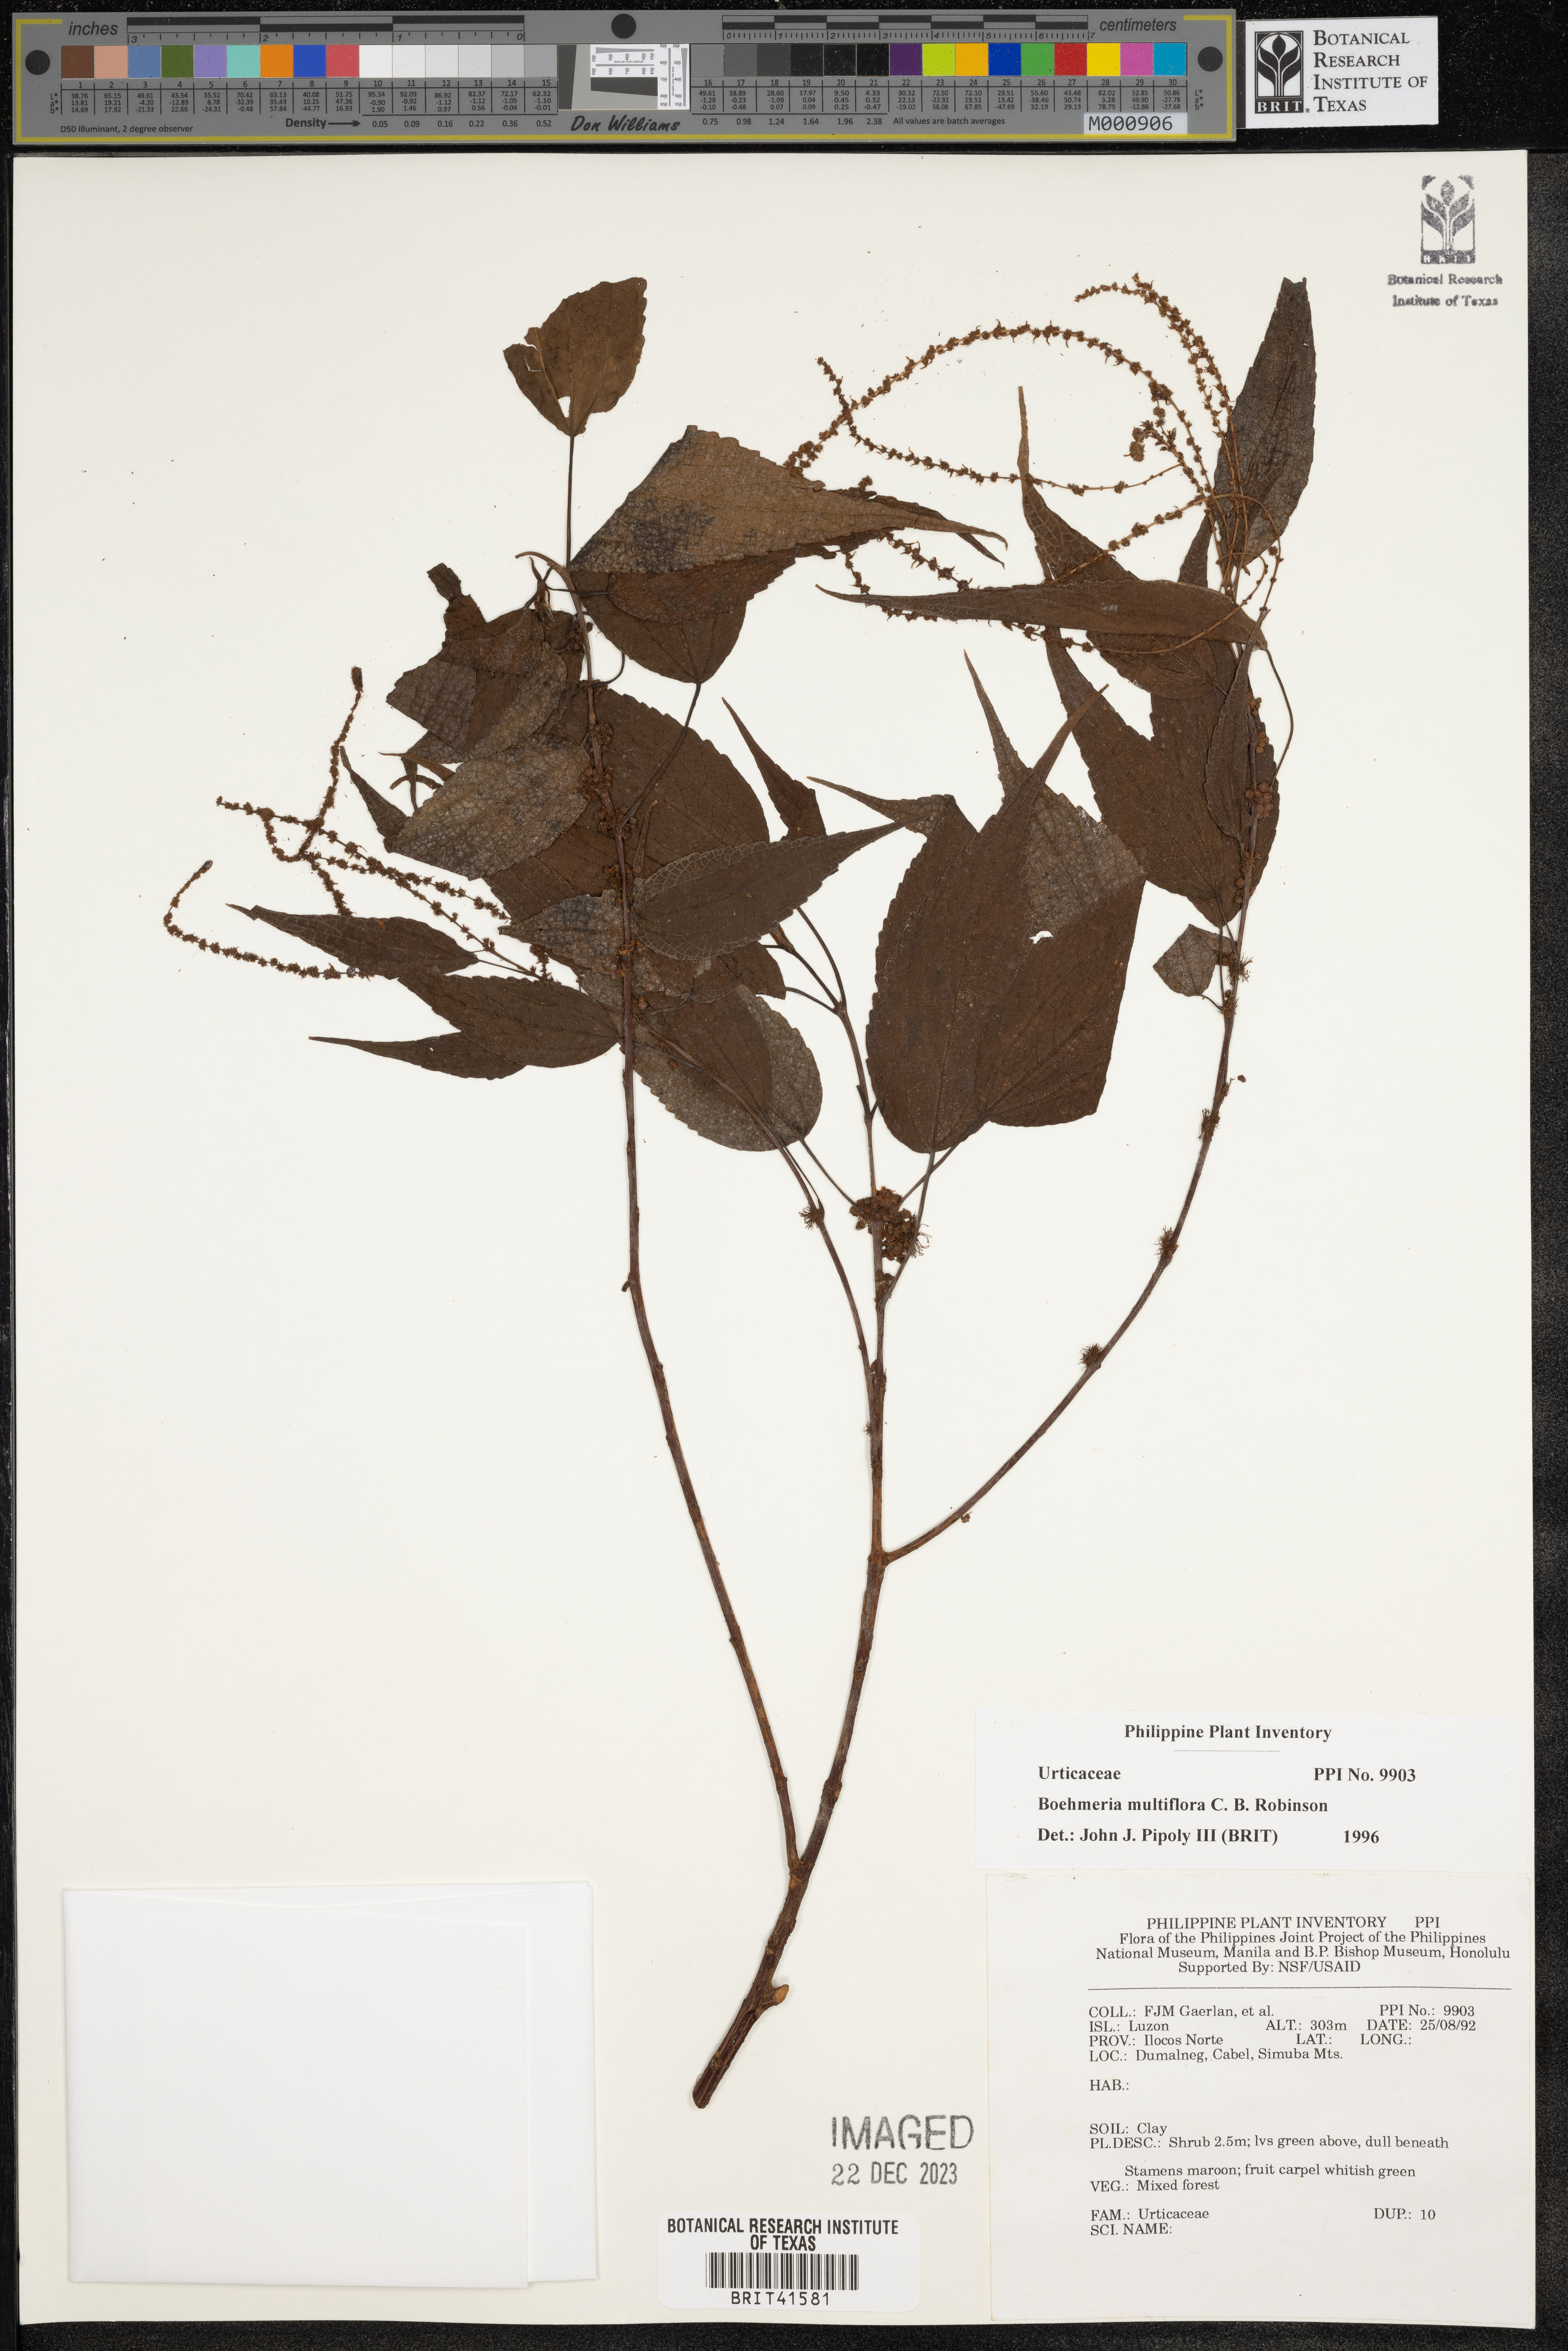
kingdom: Plantae
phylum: Tracheophyta
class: Magnoliopsida
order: Rosales
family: Urticaceae
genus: Boehmeria
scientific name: Boehmeria multiflora
